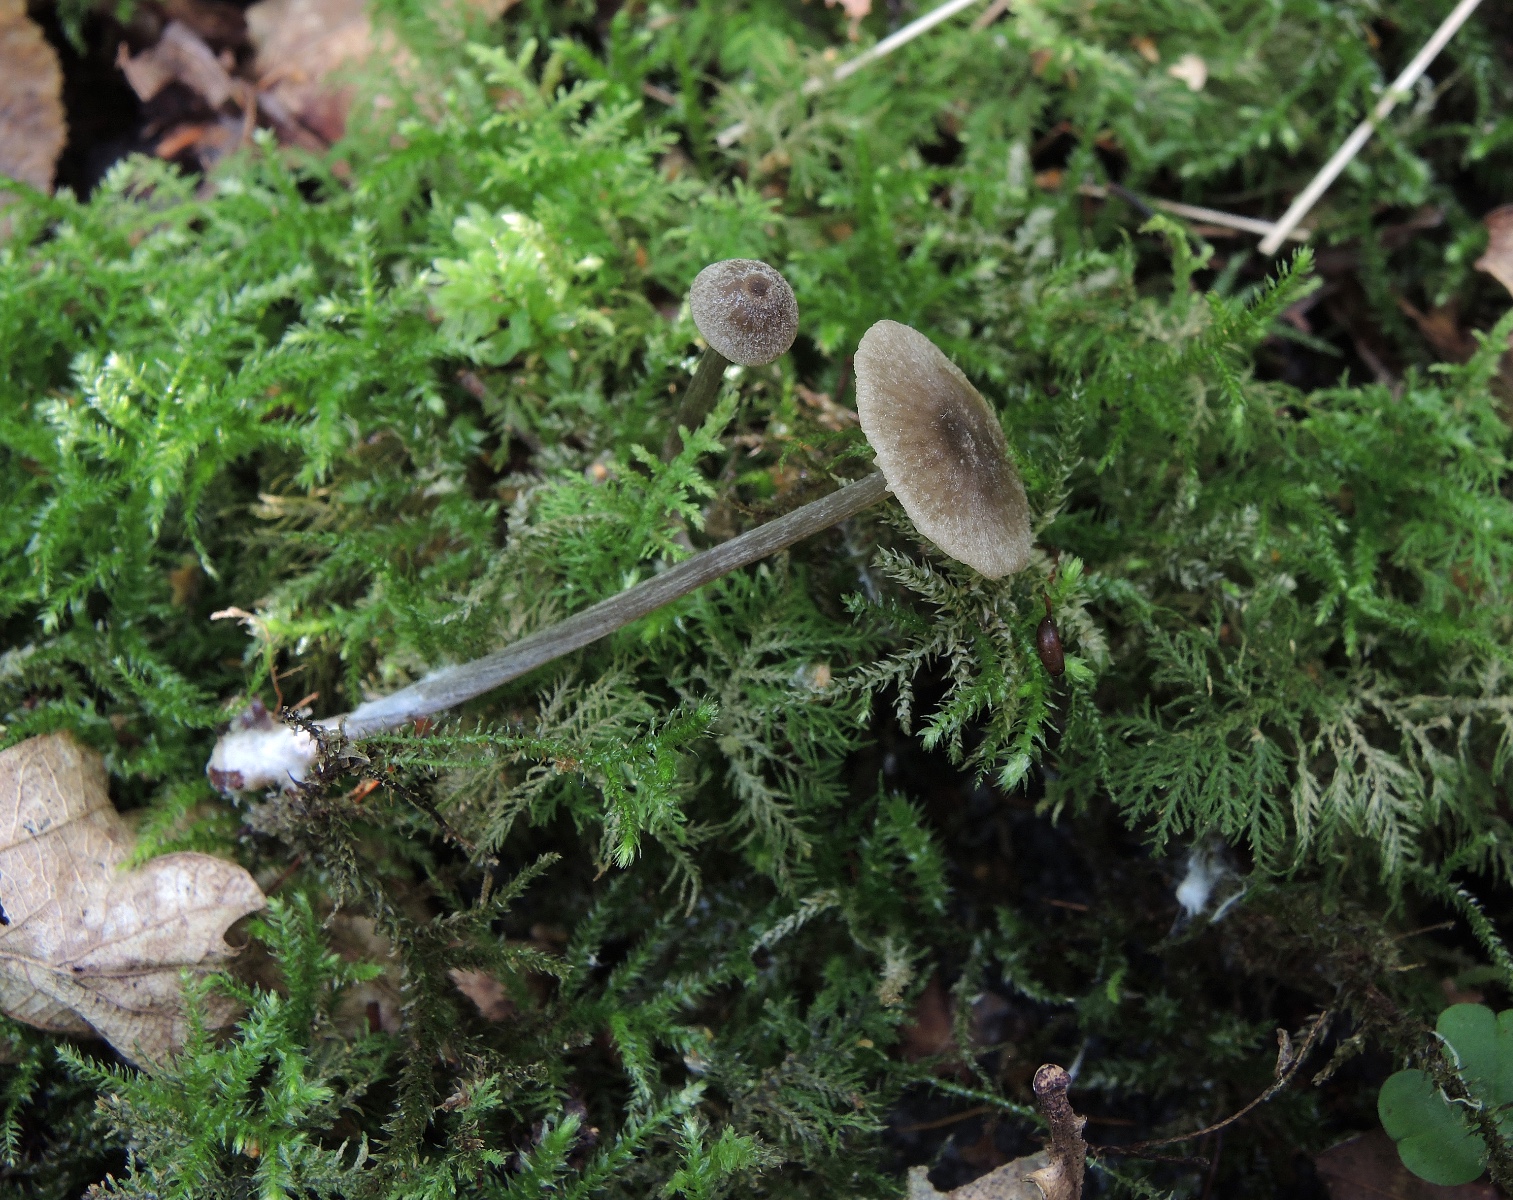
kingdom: Fungi
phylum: Basidiomycota
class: Agaricomycetes
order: Agaricales
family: Entolomataceae
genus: Entoloma
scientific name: Entoloma minutum
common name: liden rødblad
